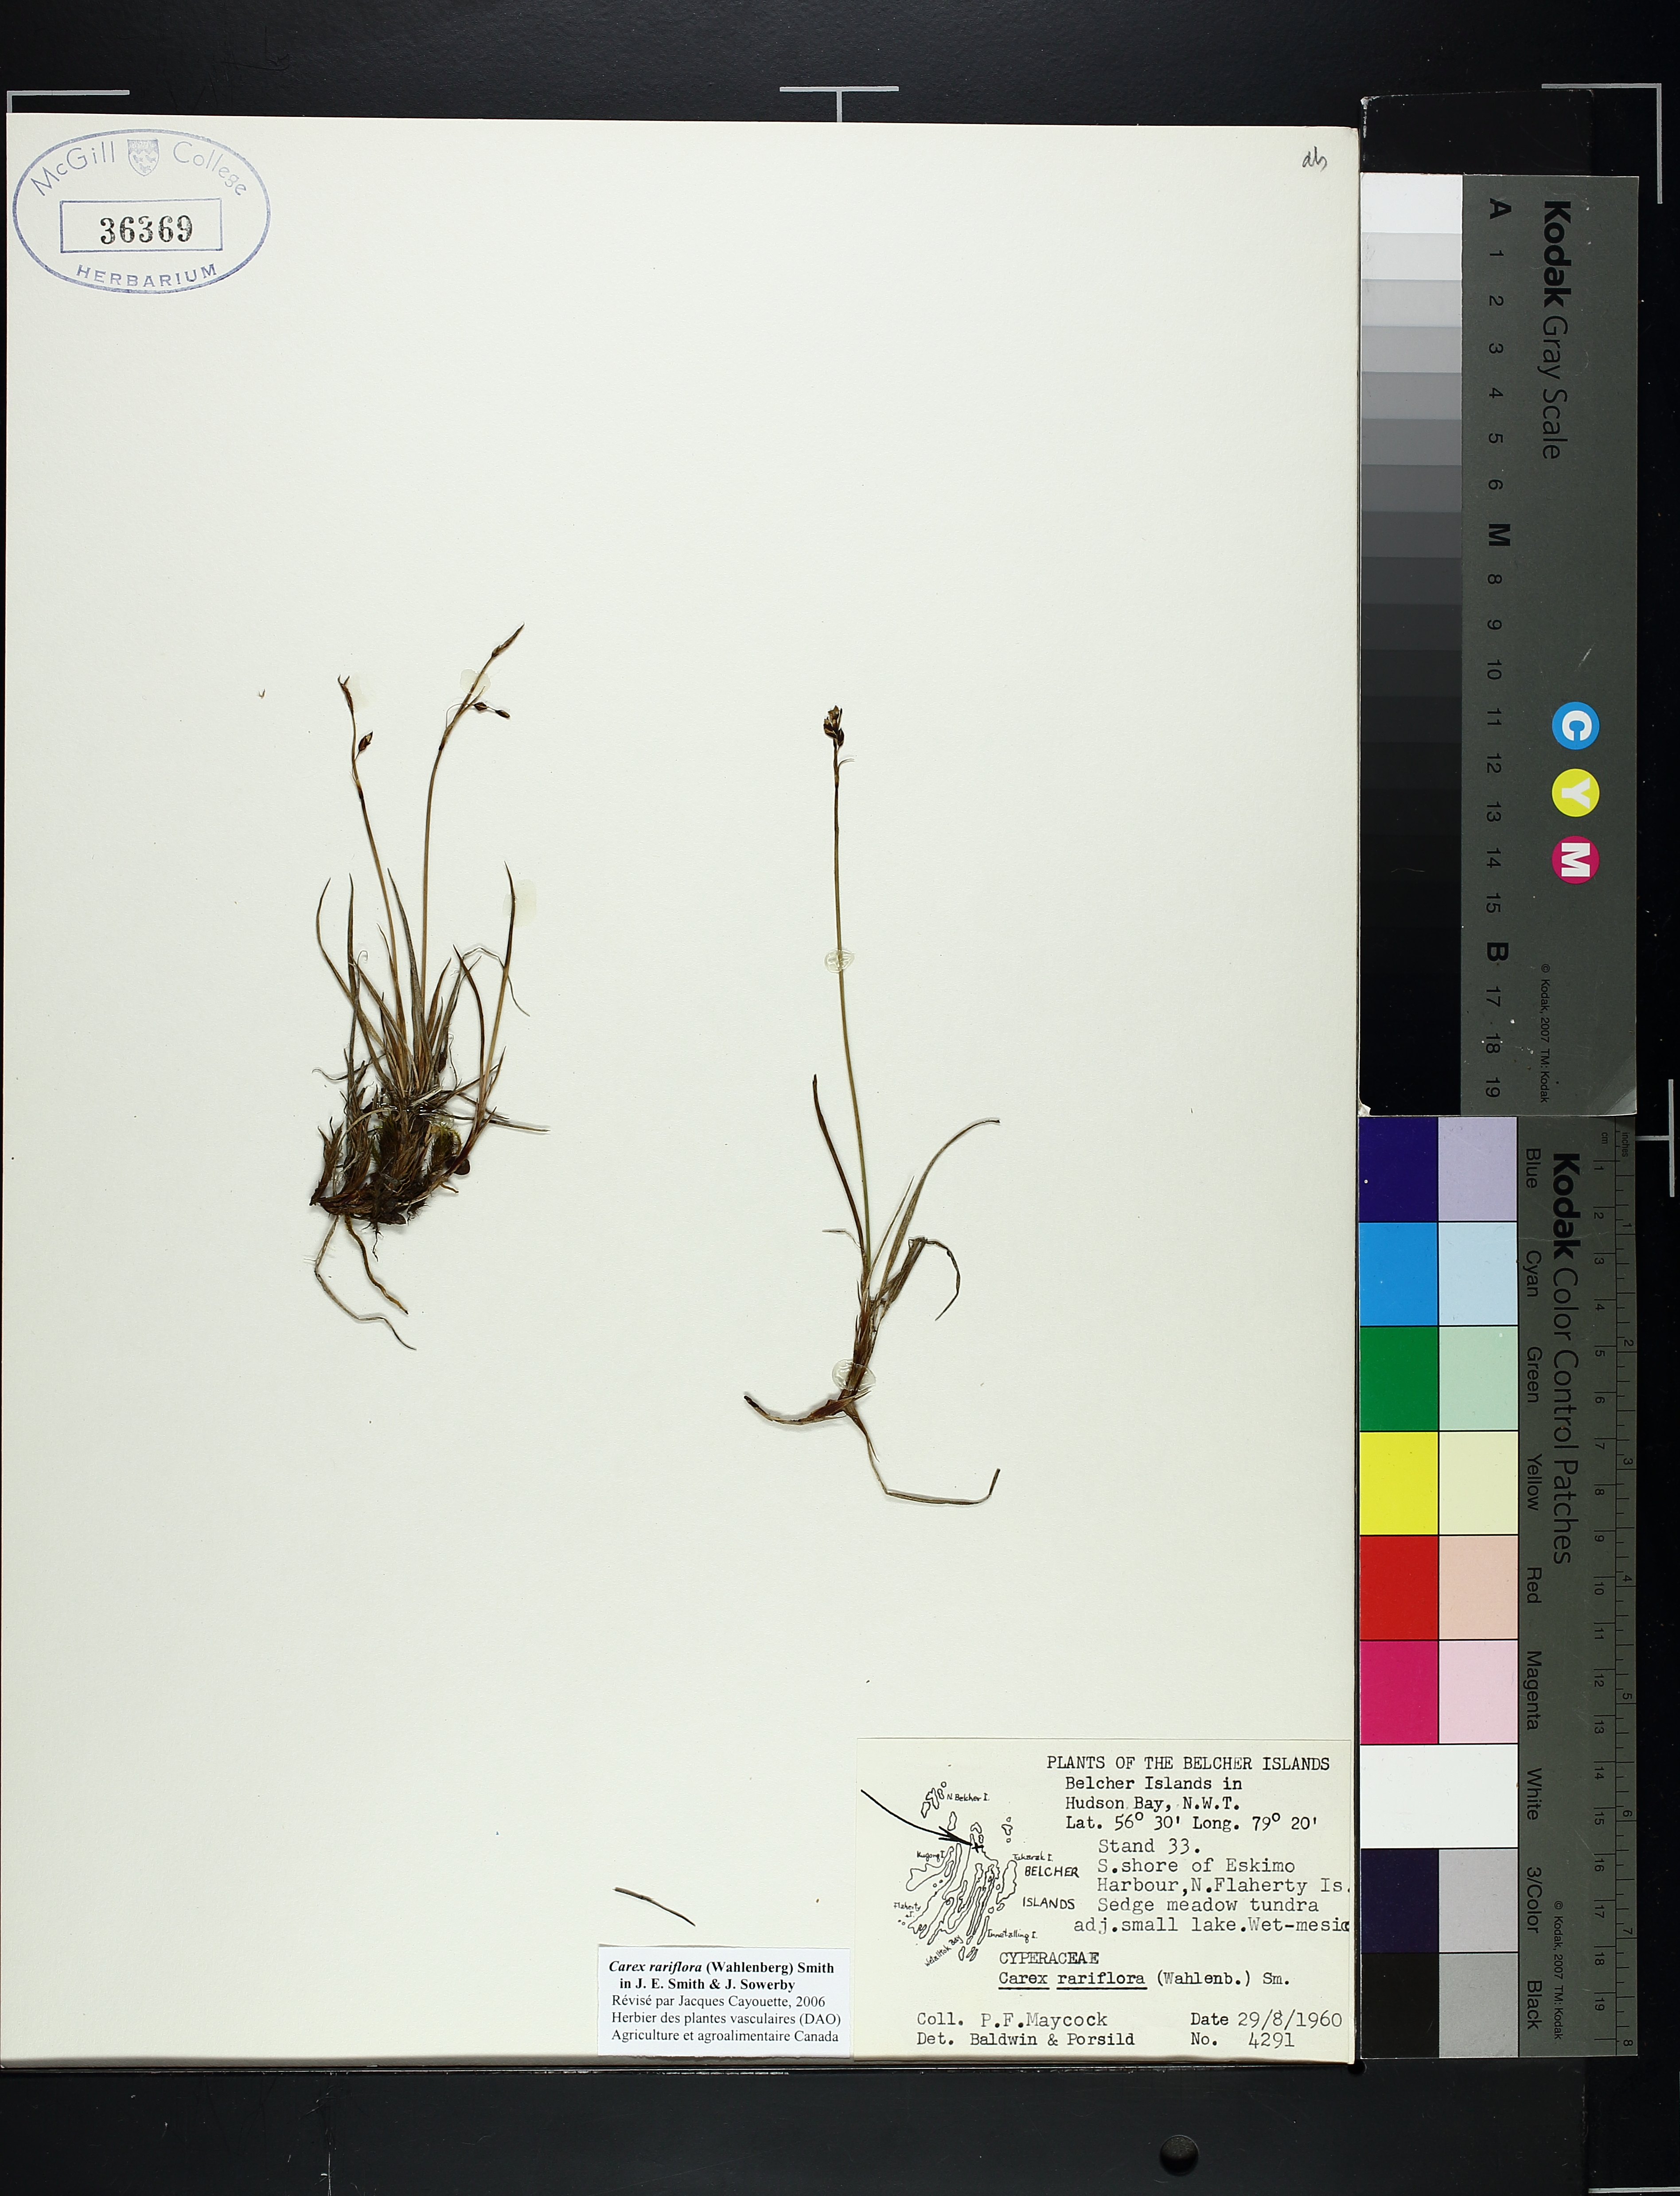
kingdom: Plantae
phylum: Tracheophyta
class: Liliopsida
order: Poales
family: Cyperaceae
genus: Carex
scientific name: Carex rariflora
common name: Loose-flowered alpine sedge
